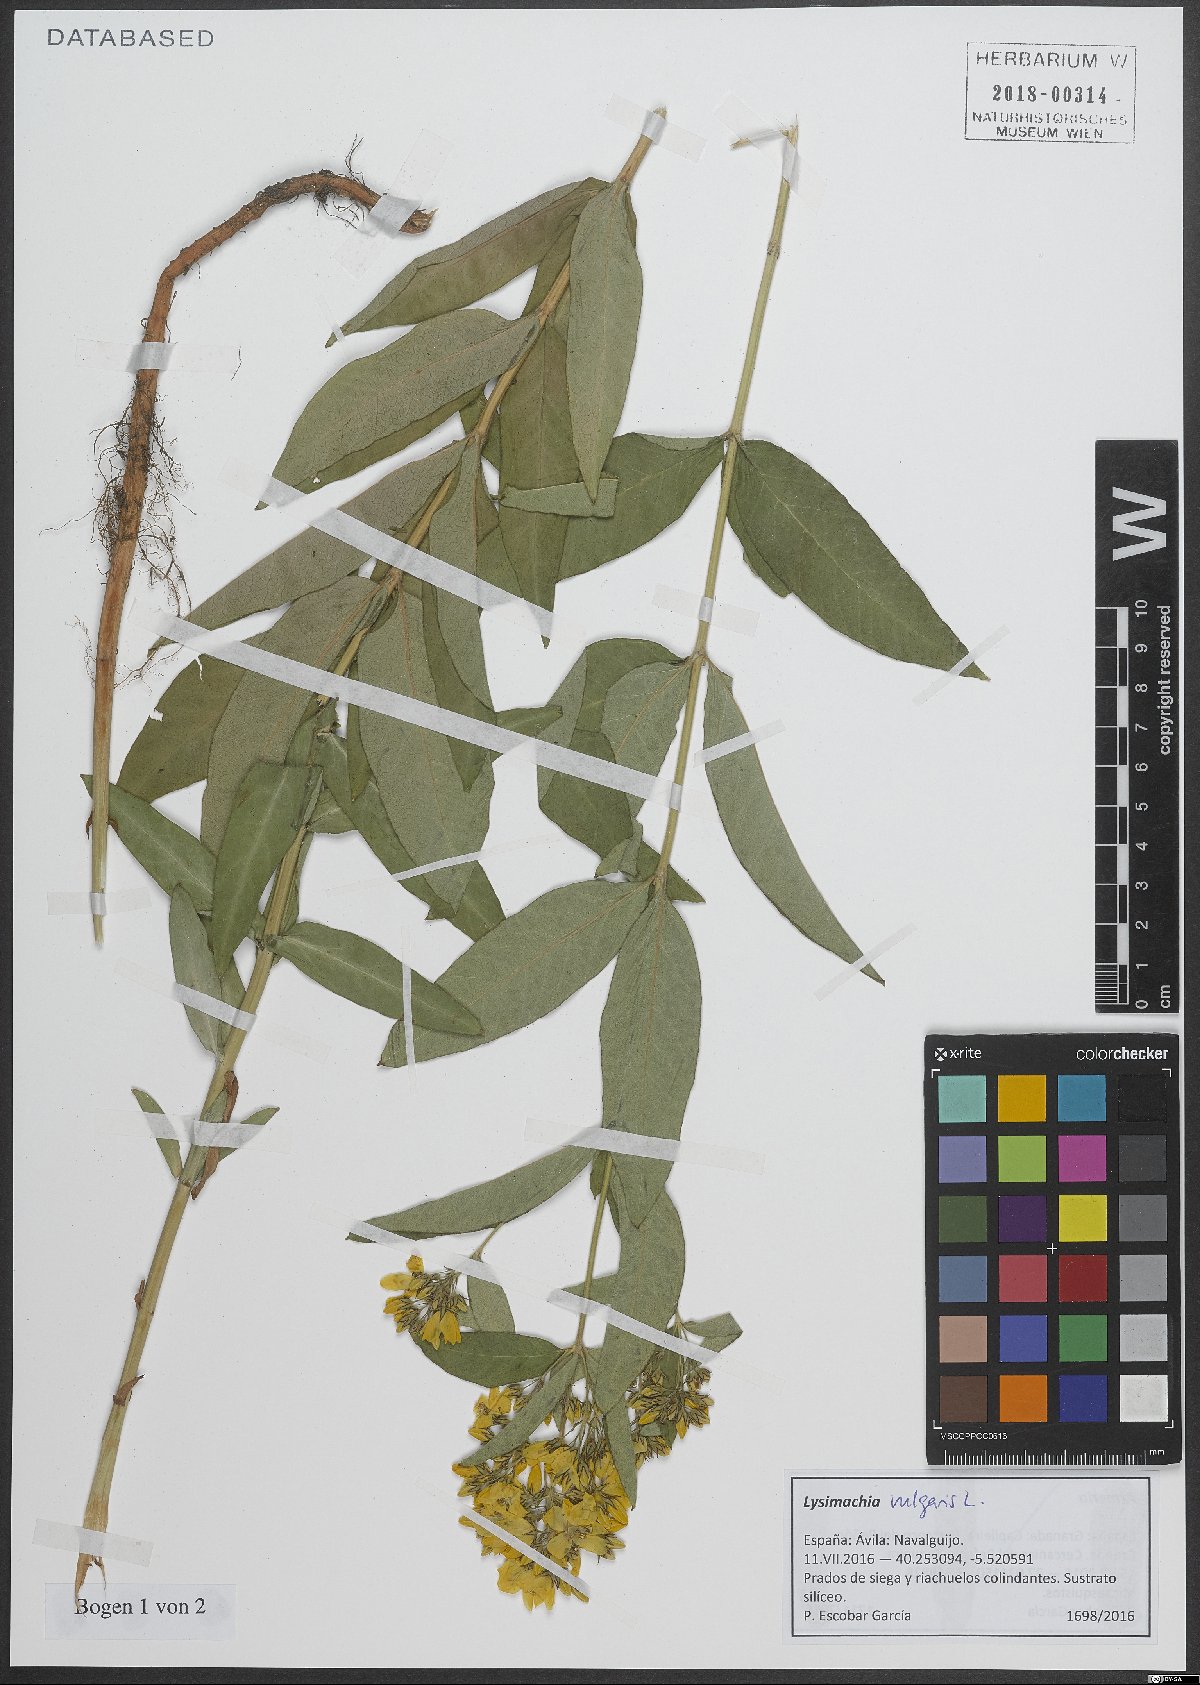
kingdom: Plantae
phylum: Tracheophyta
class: Magnoliopsida
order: Ericales
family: Primulaceae
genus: Lysimachia
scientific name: Lysimachia vulgaris
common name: Yellow loosestrife
